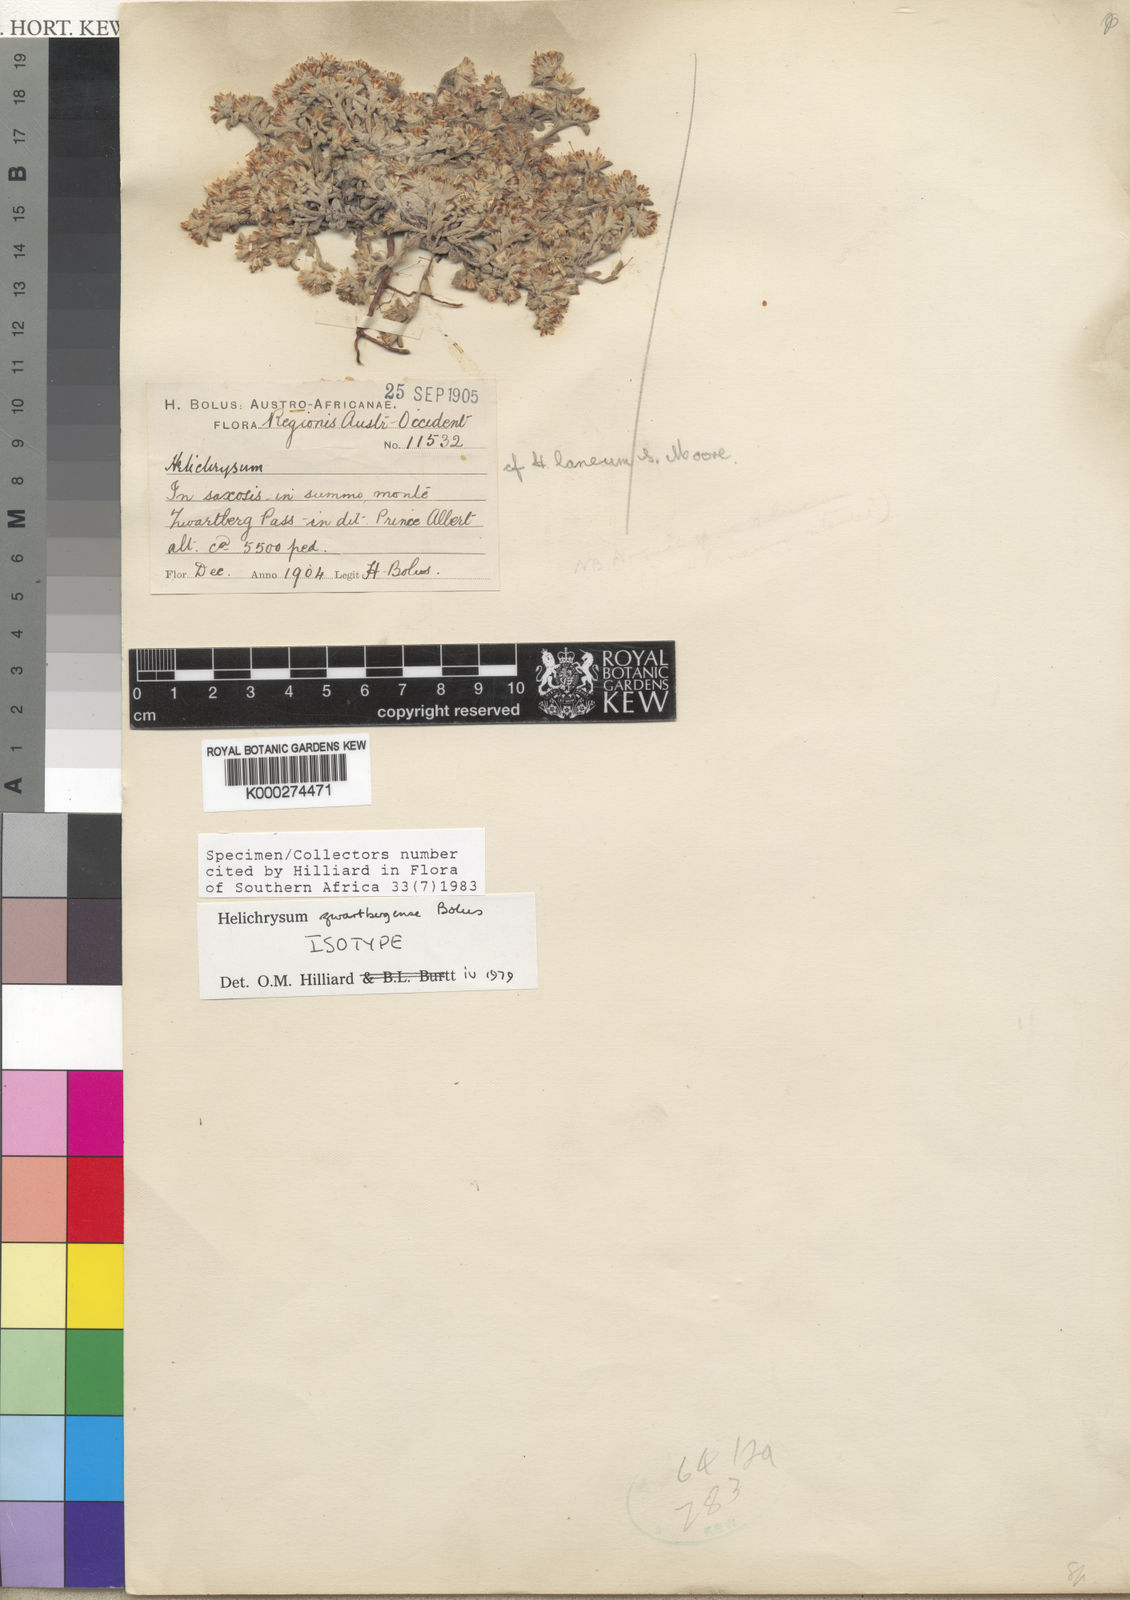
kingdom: Plantae
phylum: Tracheophyta
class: Magnoliopsida
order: Asterales
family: Asteraceae
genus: Helichrysum
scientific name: Helichrysum zwartbergense
